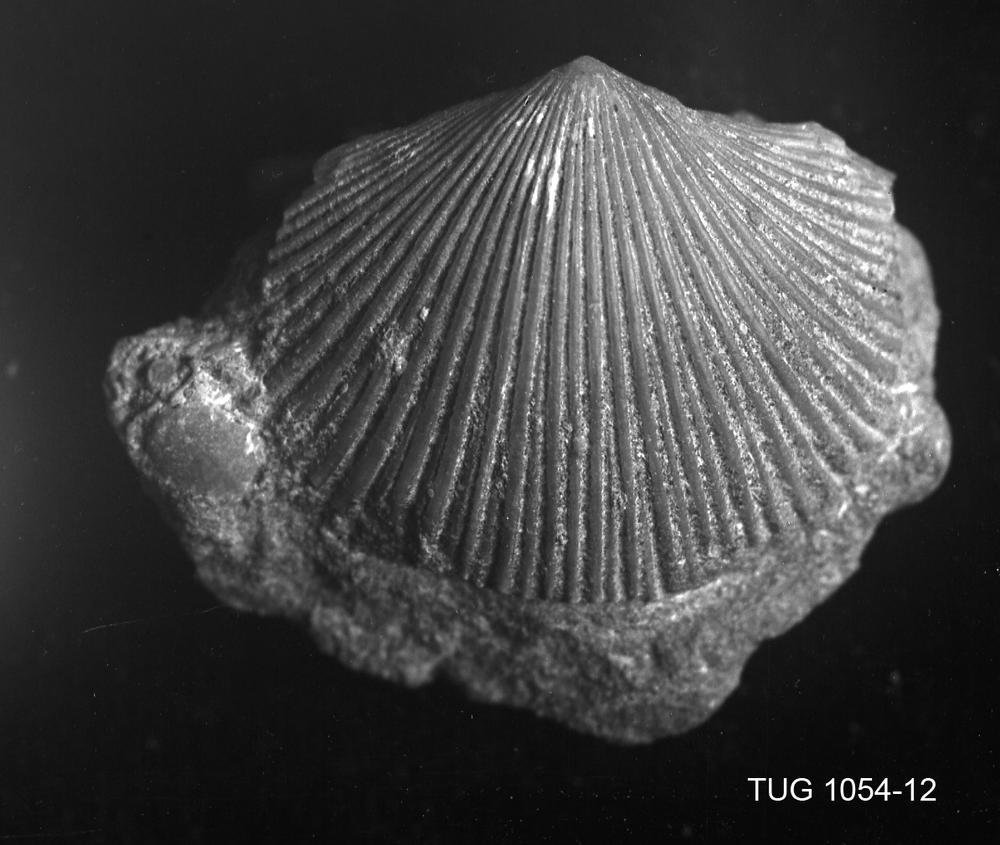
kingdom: Animalia
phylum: Brachiopoda
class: Rhynchonellata
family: Orthidae
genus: Sivorthis
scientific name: Sivorthis
